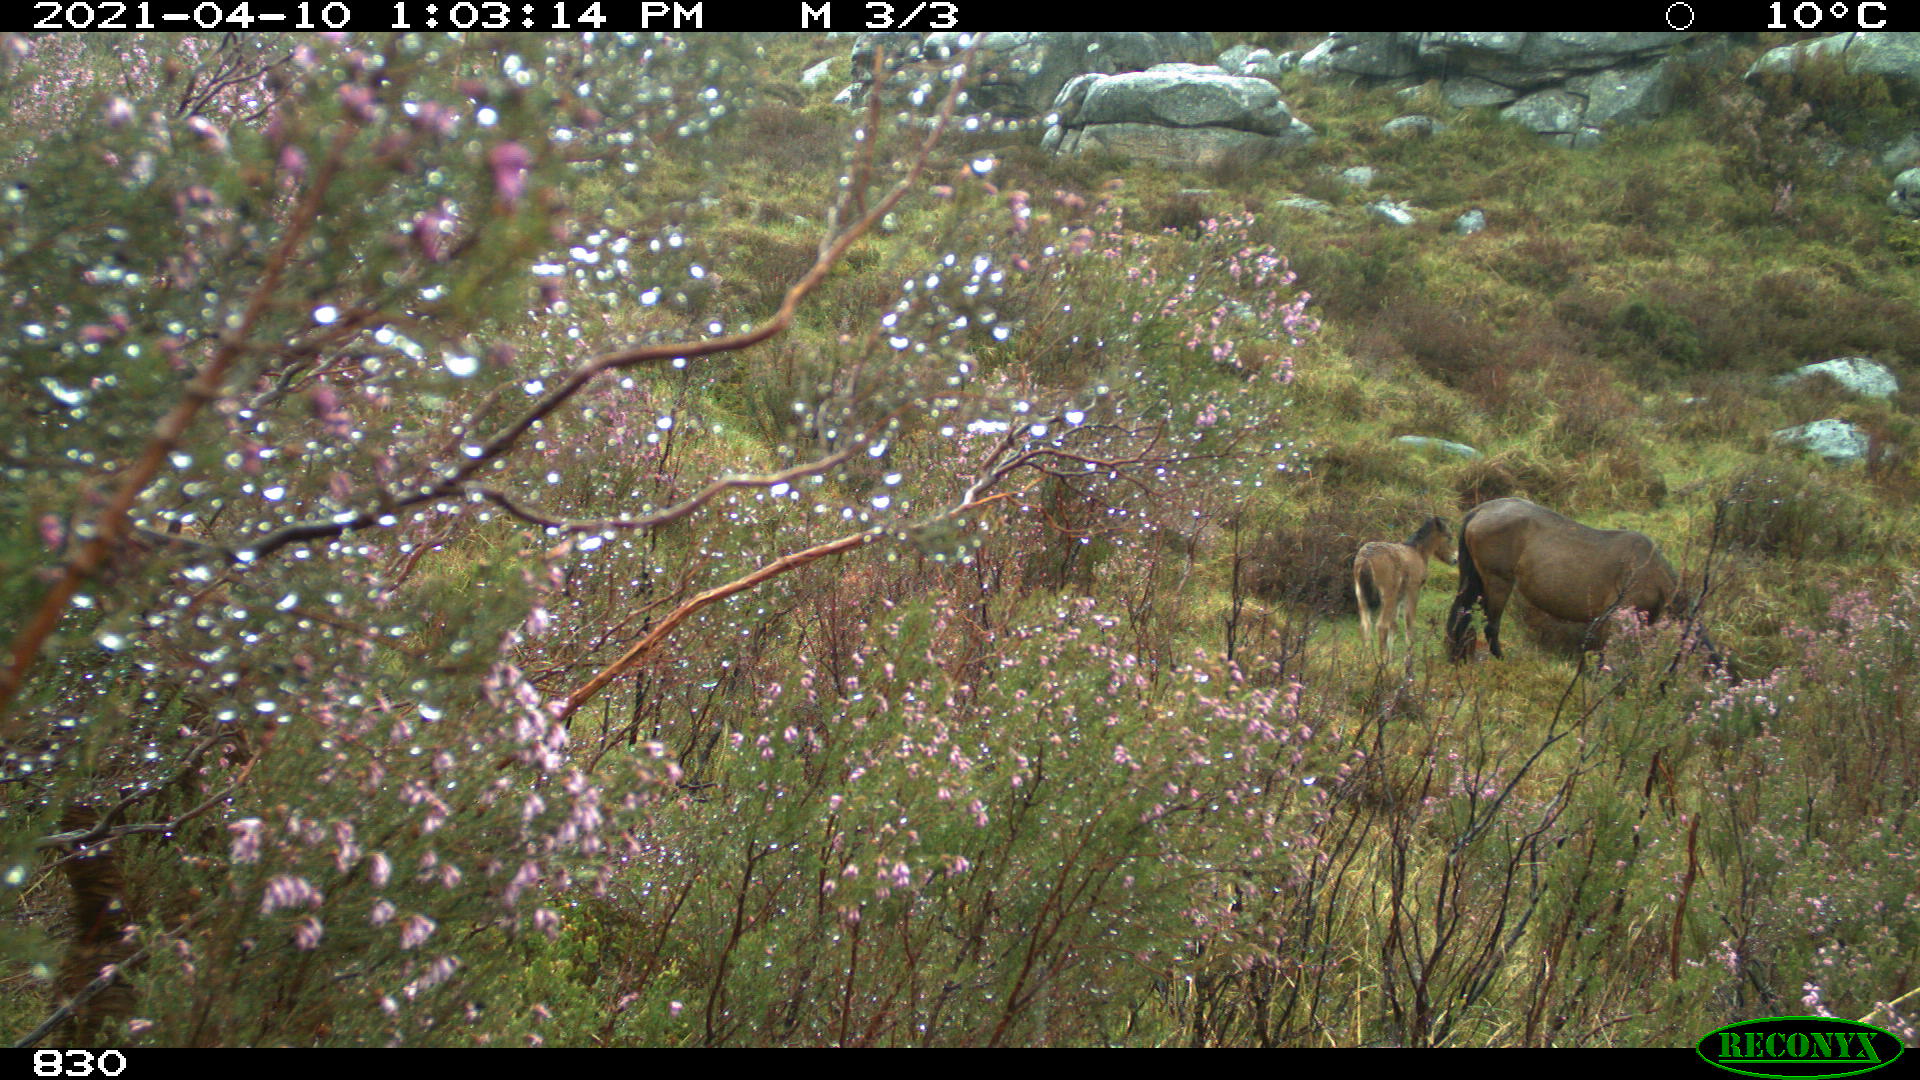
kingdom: Animalia
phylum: Chordata
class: Mammalia
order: Perissodactyla
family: Equidae
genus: Equus
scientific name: Equus caballus
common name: Horse
